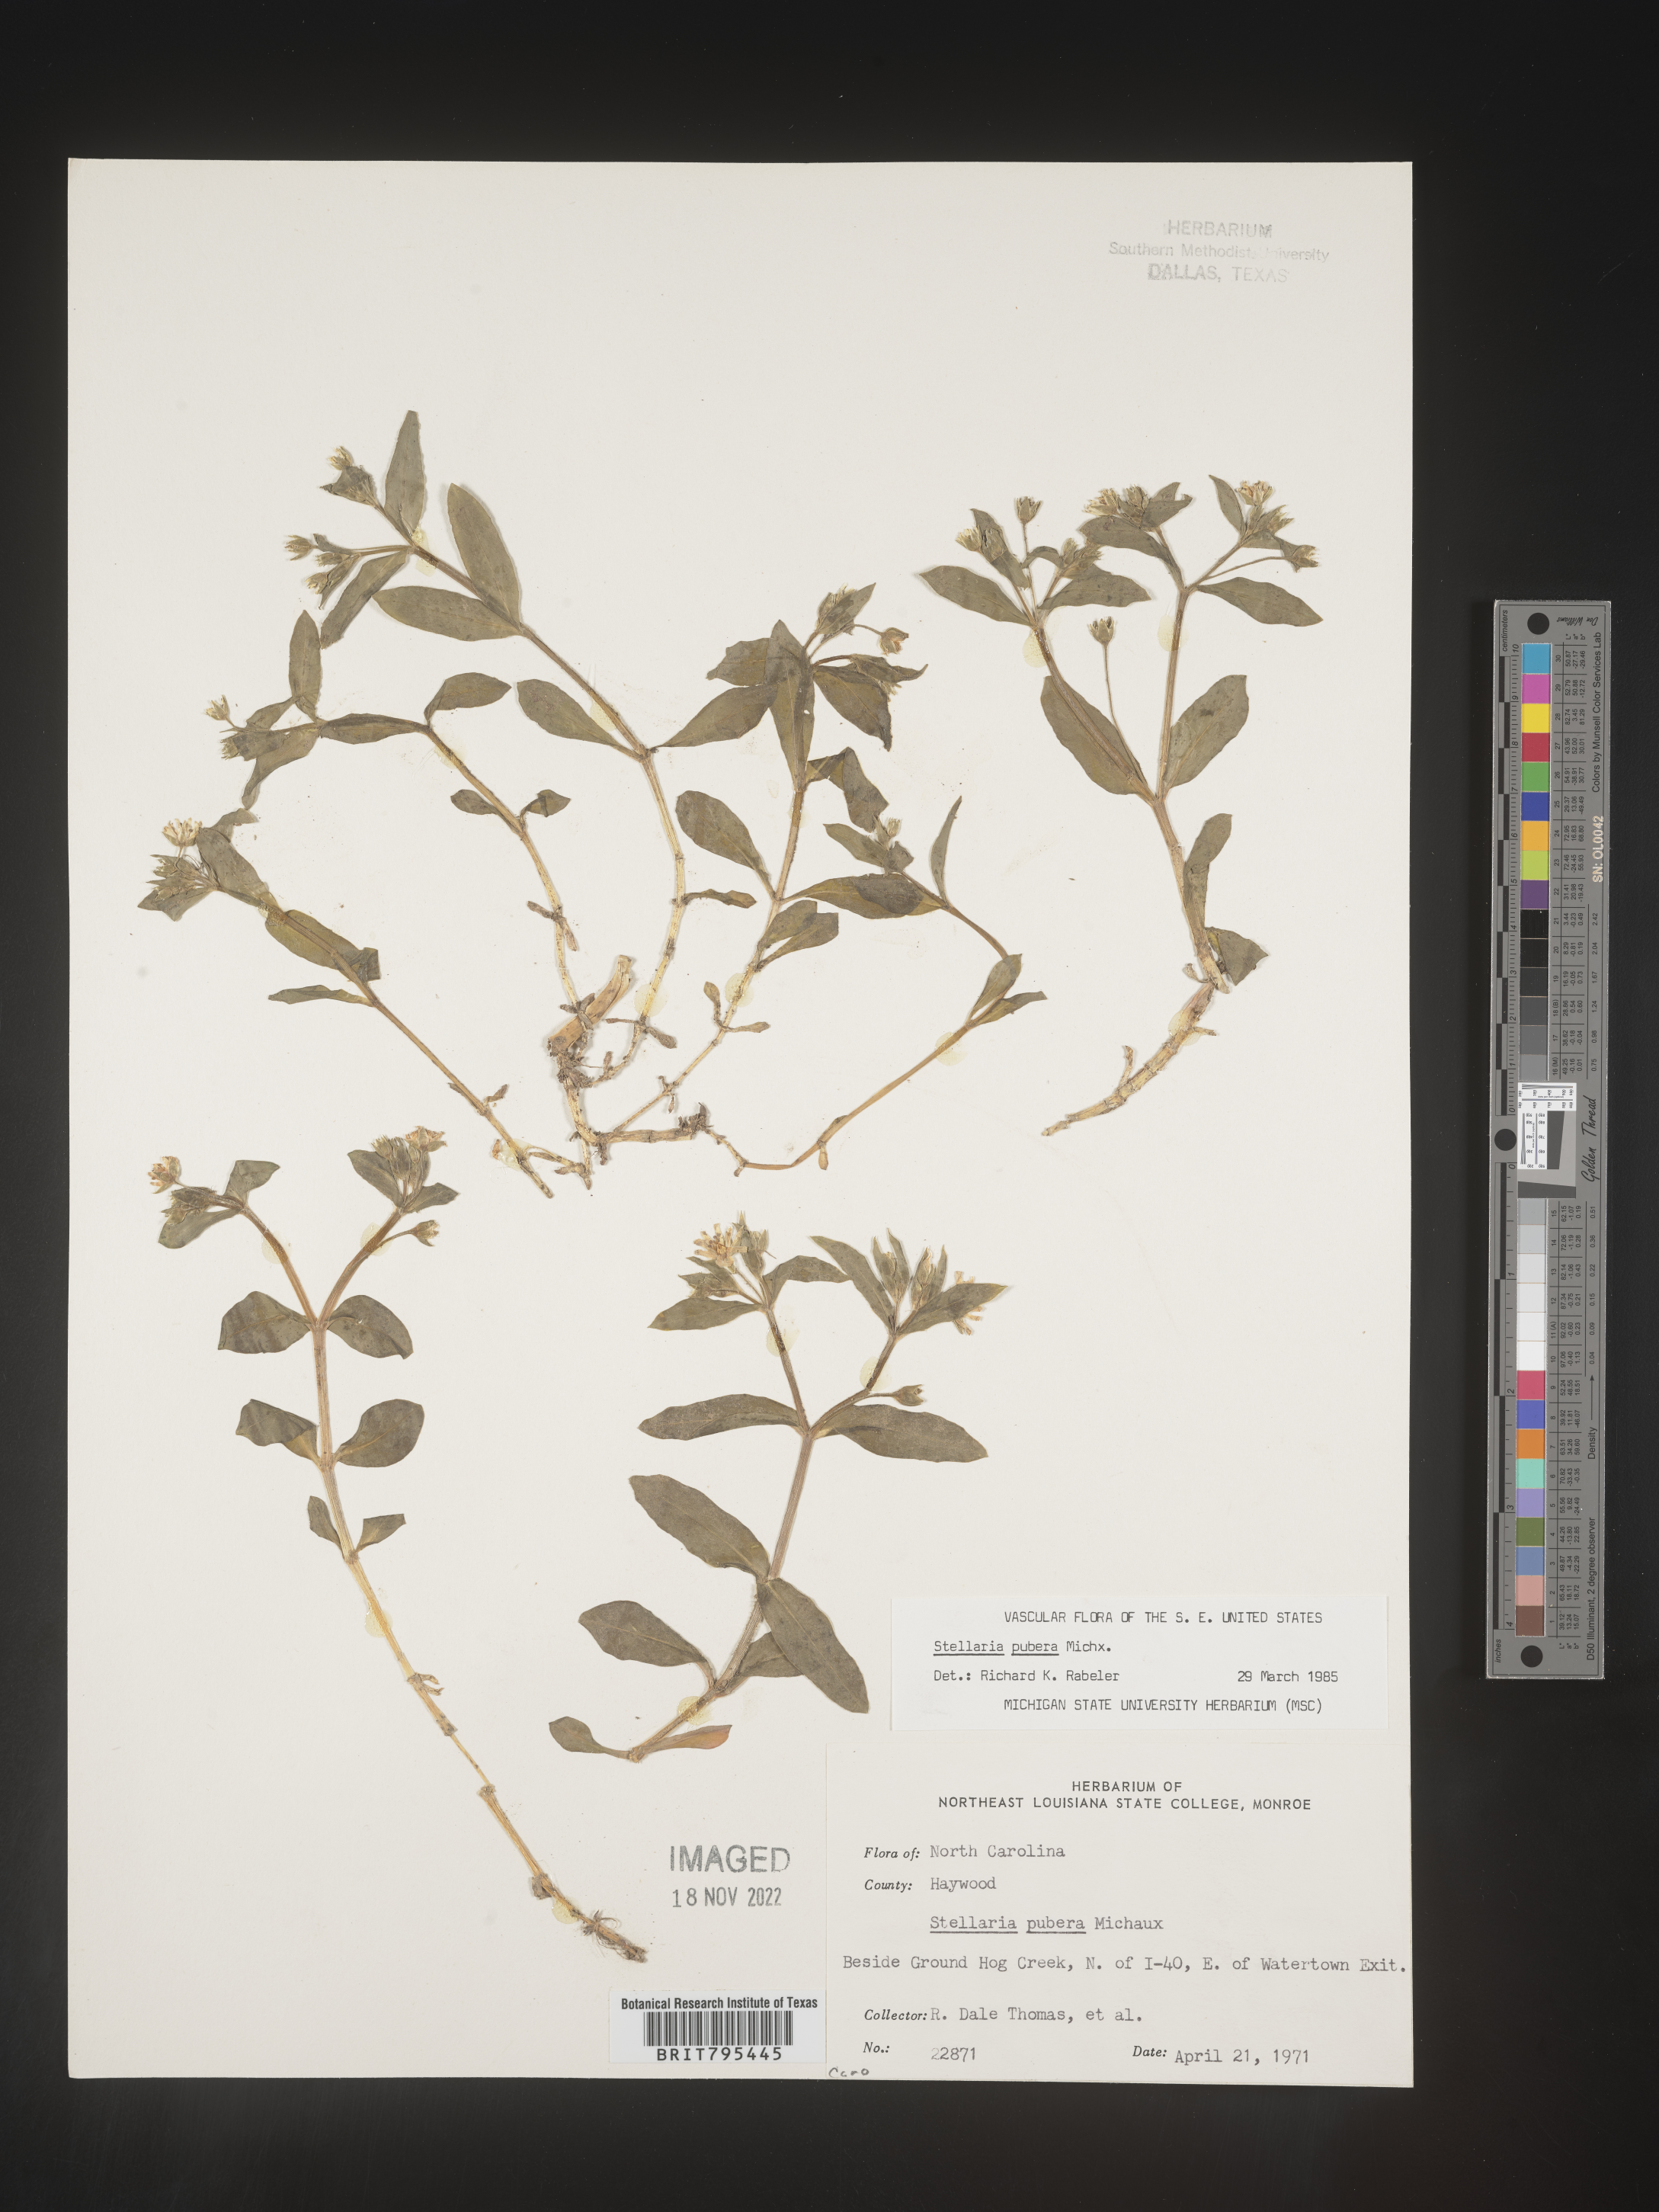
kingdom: Plantae
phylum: Tracheophyta
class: Magnoliopsida
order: Caryophyllales
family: Caryophyllaceae
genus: Stellaria
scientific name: Stellaria pubera
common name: Star chickweed
